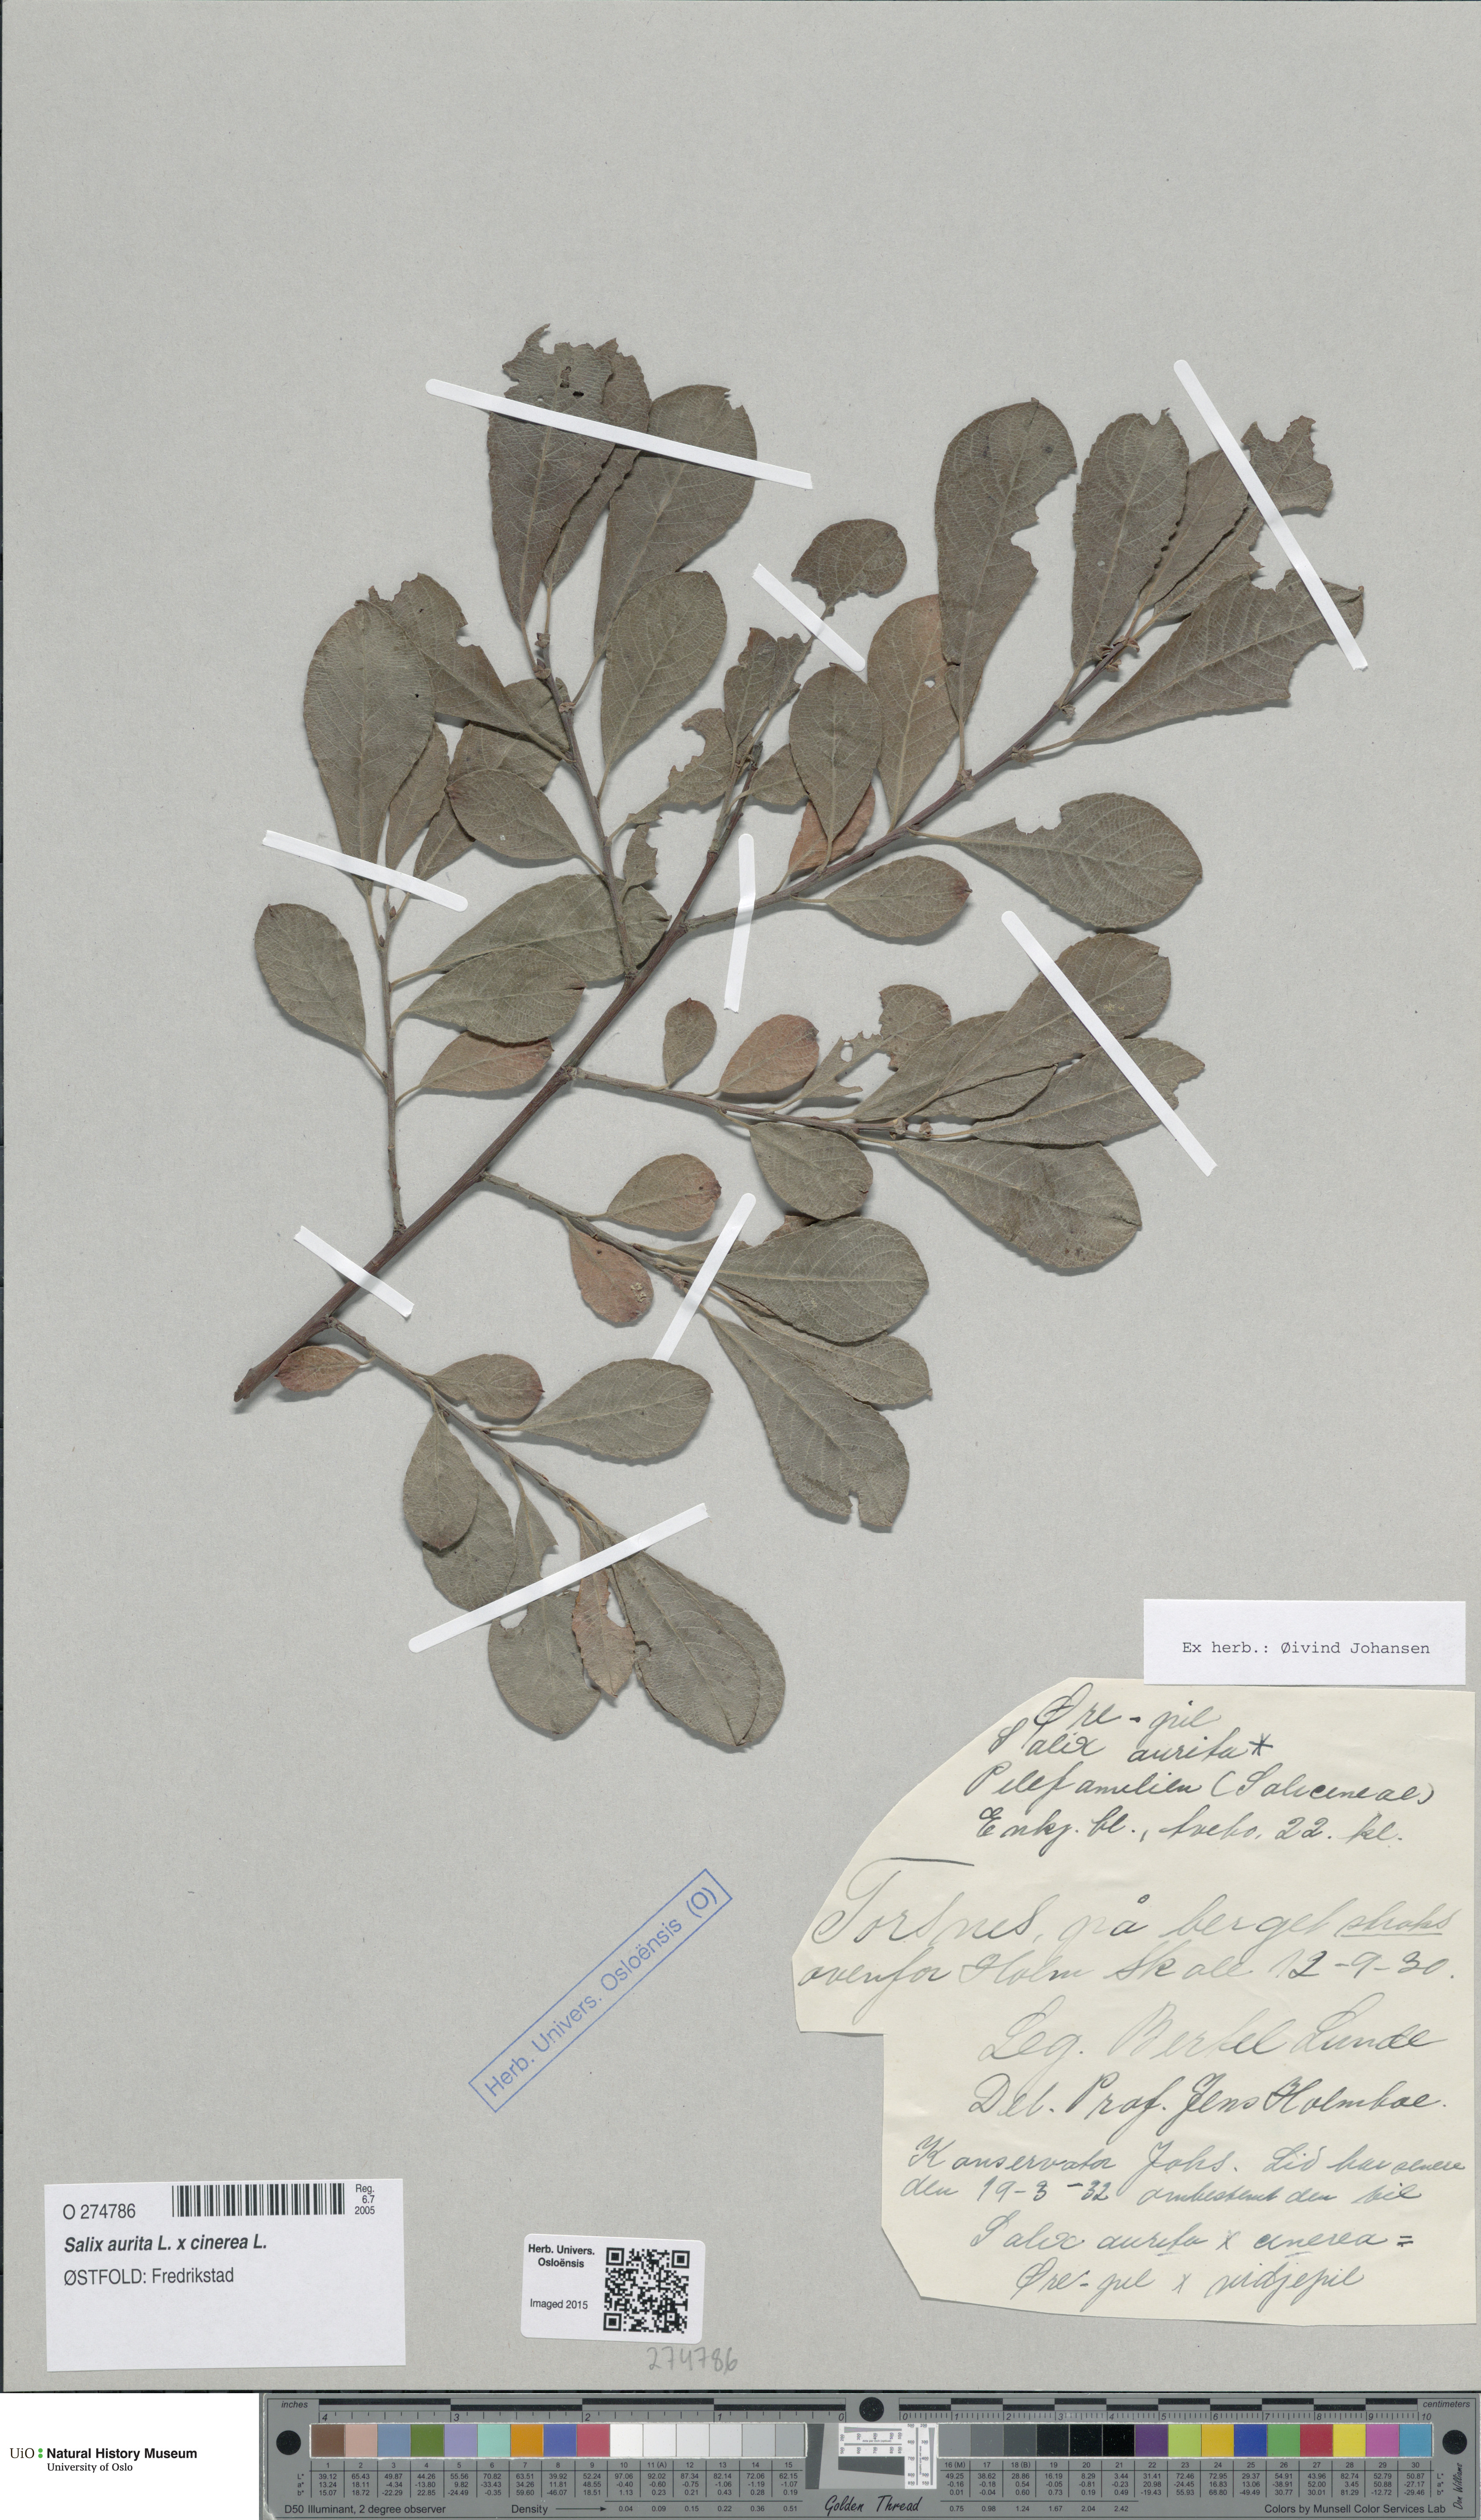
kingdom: Plantae
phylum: Tracheophyta
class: Magnoliopsida
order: Malpighiales
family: Salicaceae
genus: Salix
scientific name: Salix
